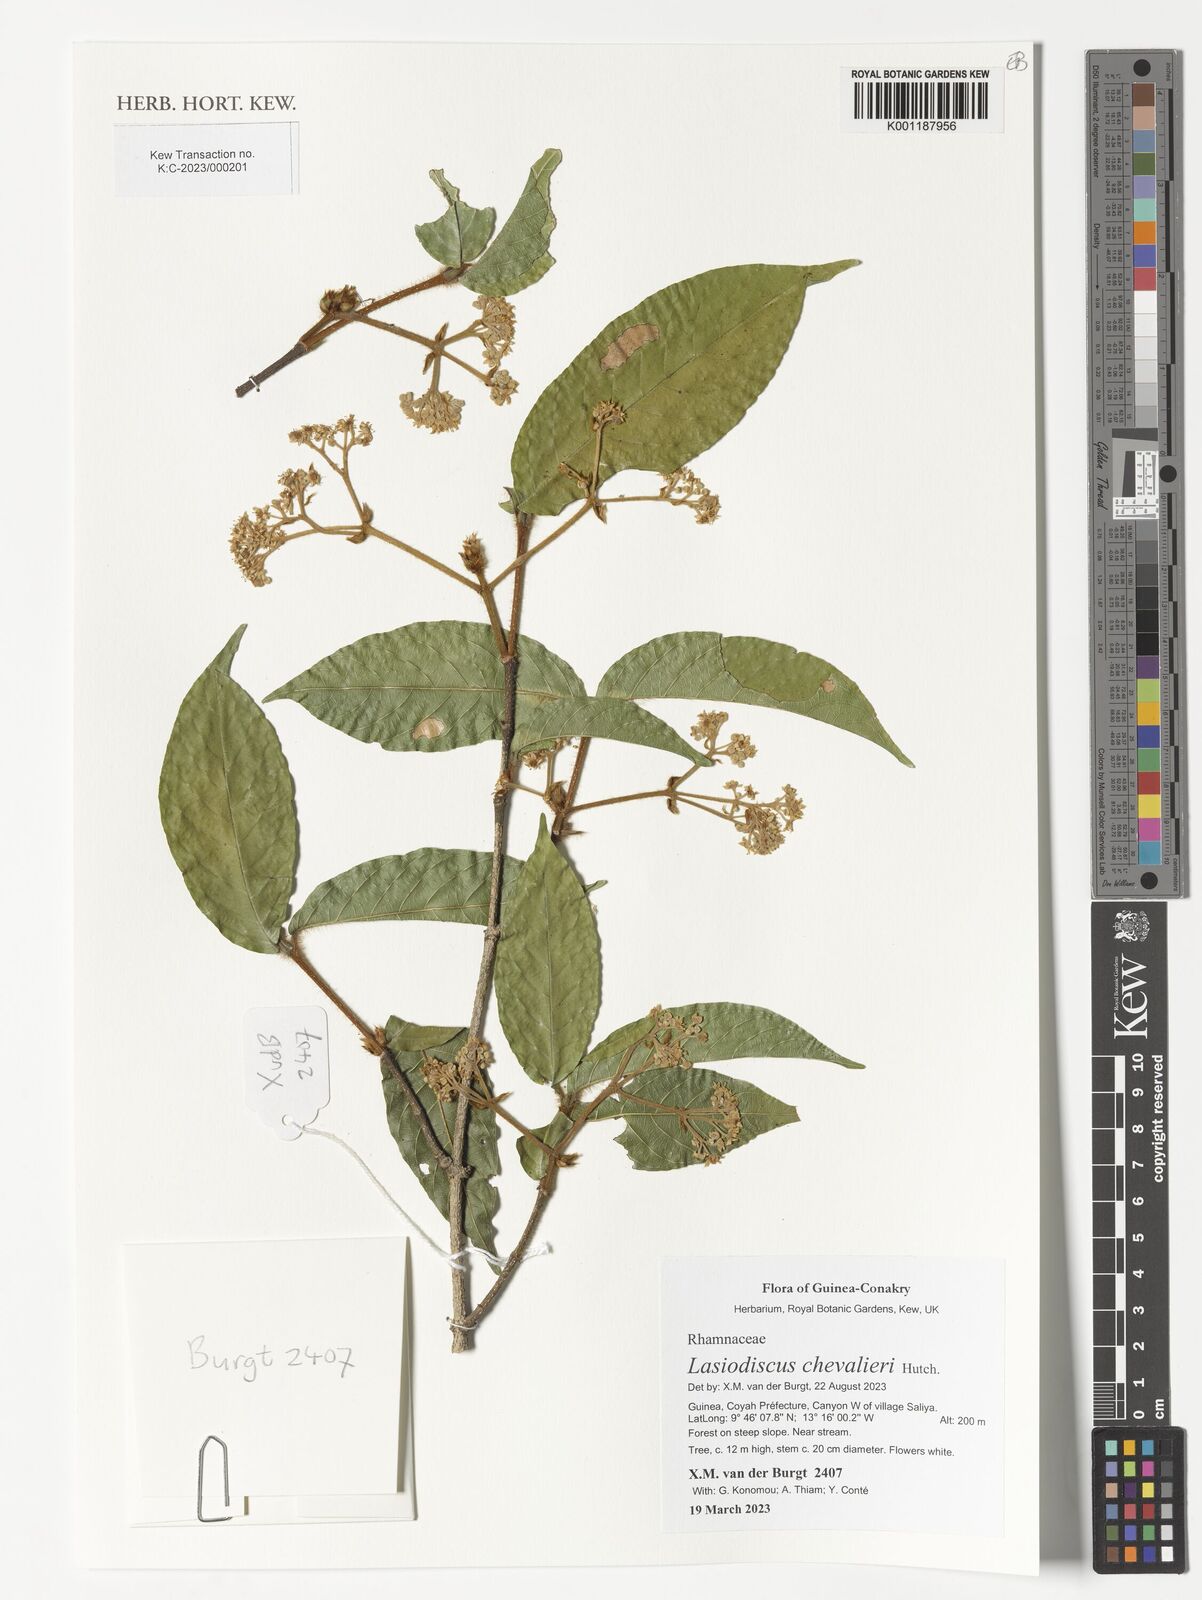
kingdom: Plantae
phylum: Tracheophyta
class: Magnoliopsida
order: Rosales
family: Rhamnaceae
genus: Lasiodiscus
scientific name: Lasiodiscus chevalieri
